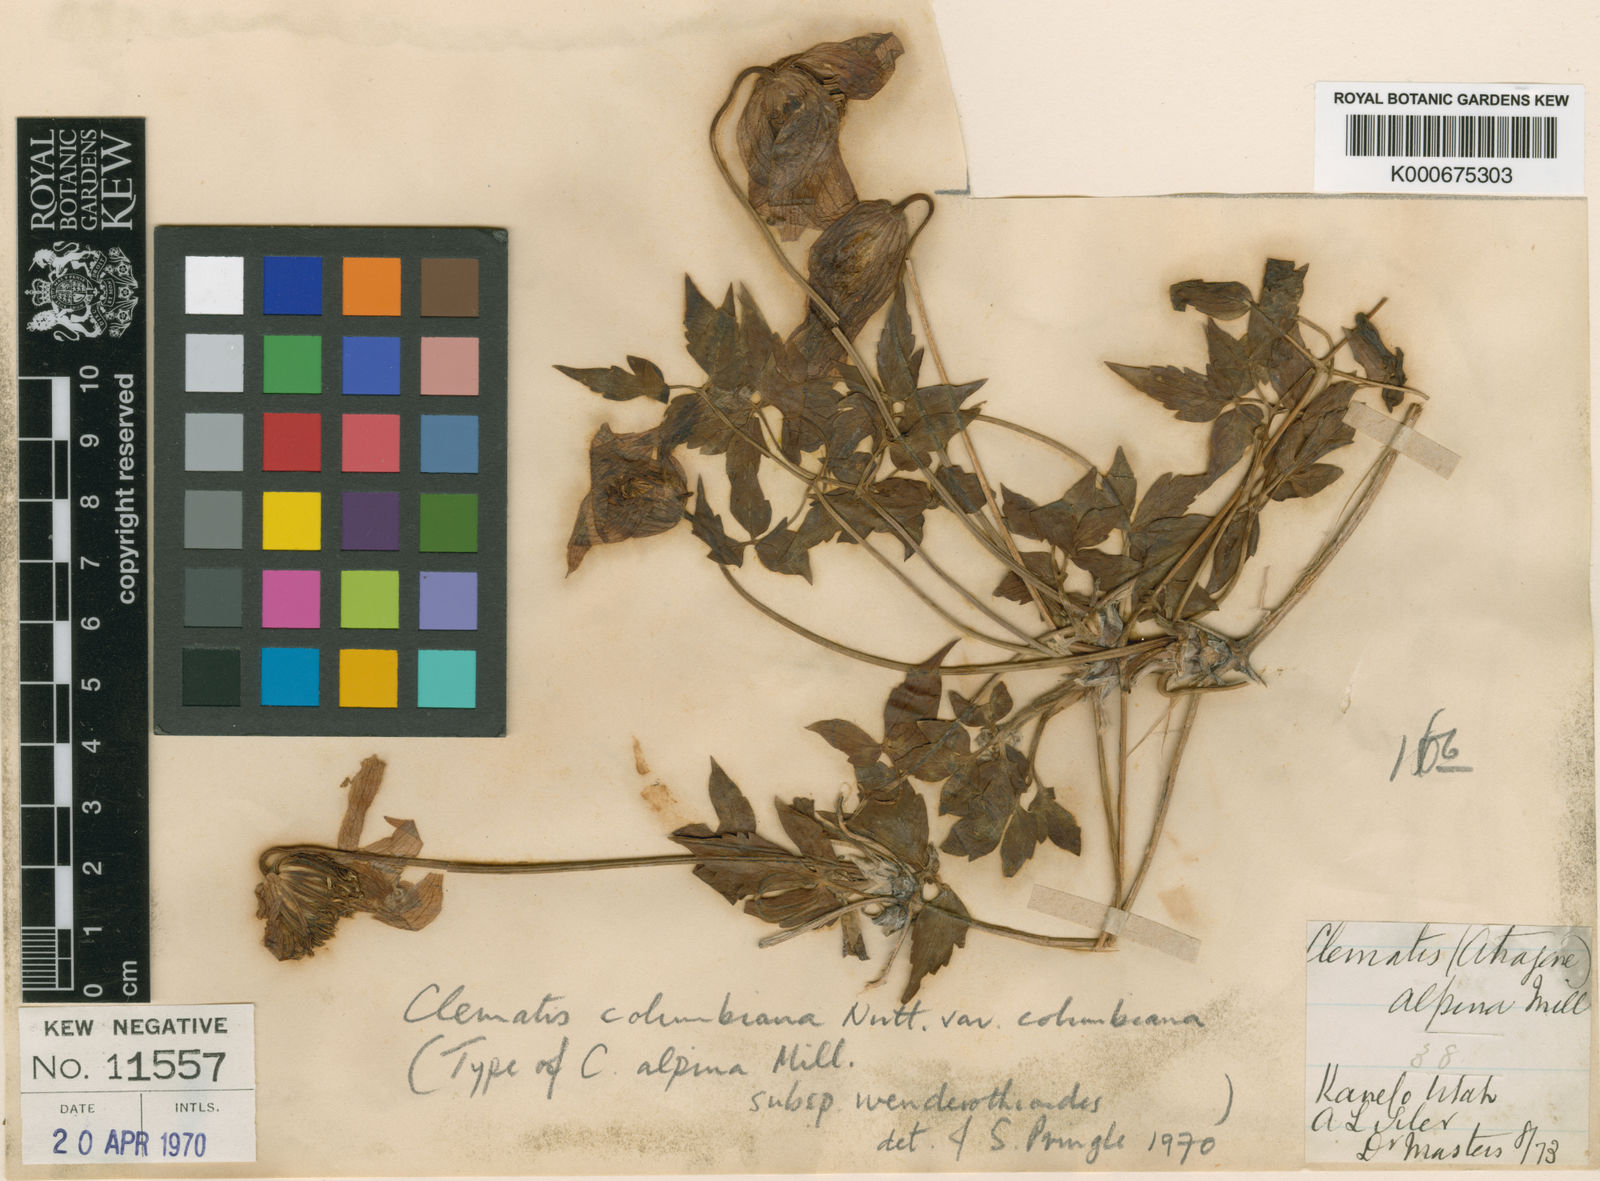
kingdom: Plantae
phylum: Tracheophyta
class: Magnoliopsida
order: Ranunculales
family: Ranunculaceae
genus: Clematis
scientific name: Clematis columbiana
